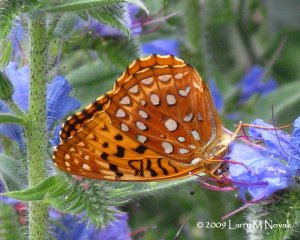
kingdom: Animalia
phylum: Arthropoda
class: Insecta
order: Lepidoptera
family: Nymphalidae
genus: Speyeria
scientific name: Speyeria aphrodite
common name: Aphrodite Fritillary
